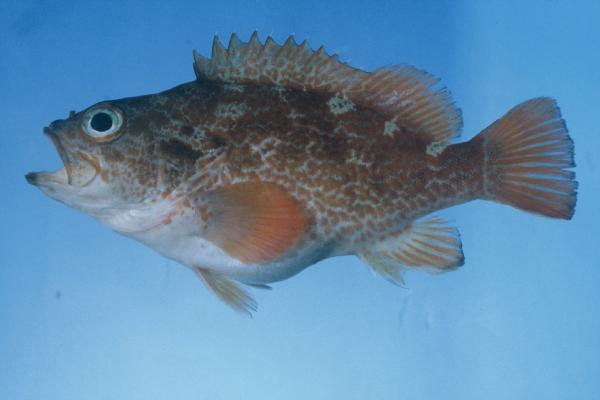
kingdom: Animalia
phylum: Chordata
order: Perciformes
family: Serranidae
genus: Acanthistius
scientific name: Acanthistius joanae
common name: Scalyjaw koester
